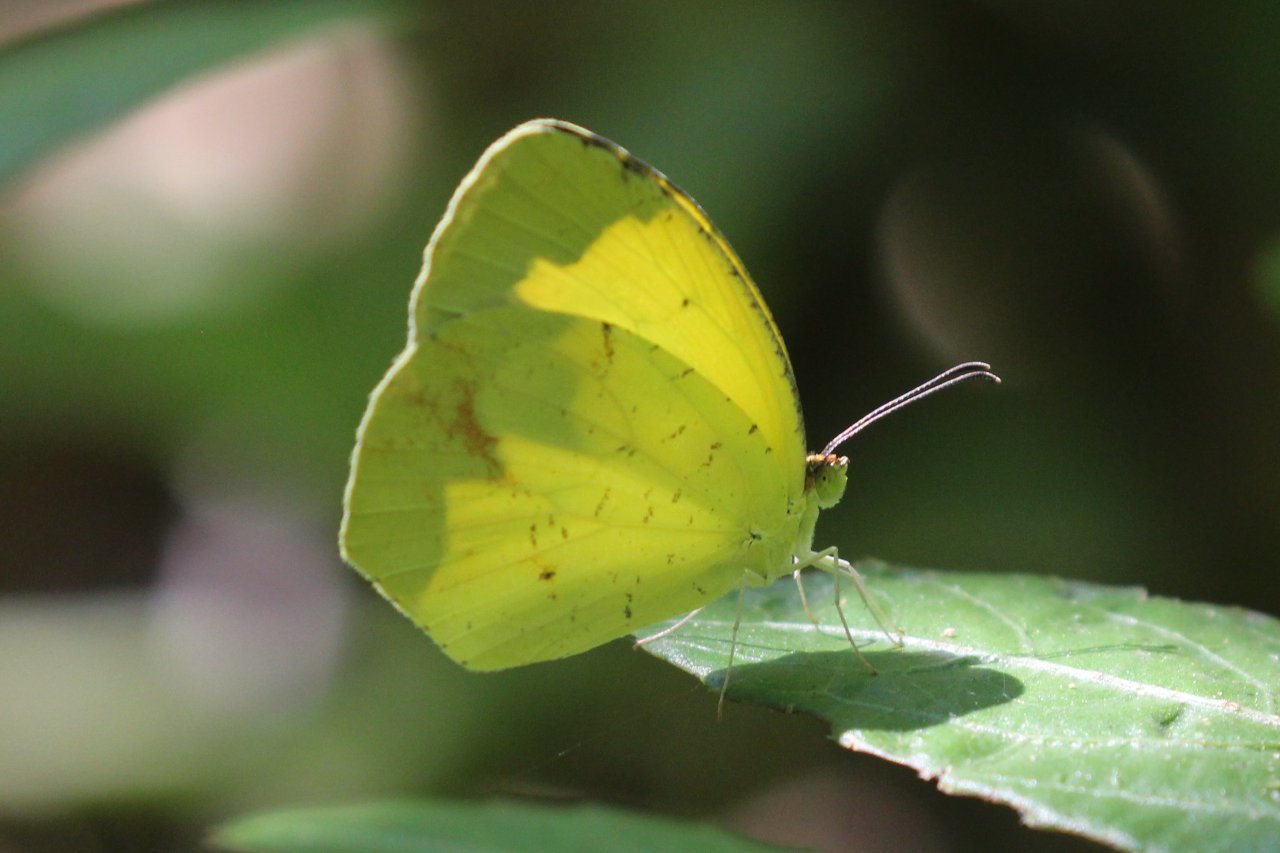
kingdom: Animalia
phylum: Arthropoda
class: Insecta
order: Lepidoptera
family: Pieridae
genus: Eurema
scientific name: Eurema boisduvaliana
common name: Boisduval's Yellow
